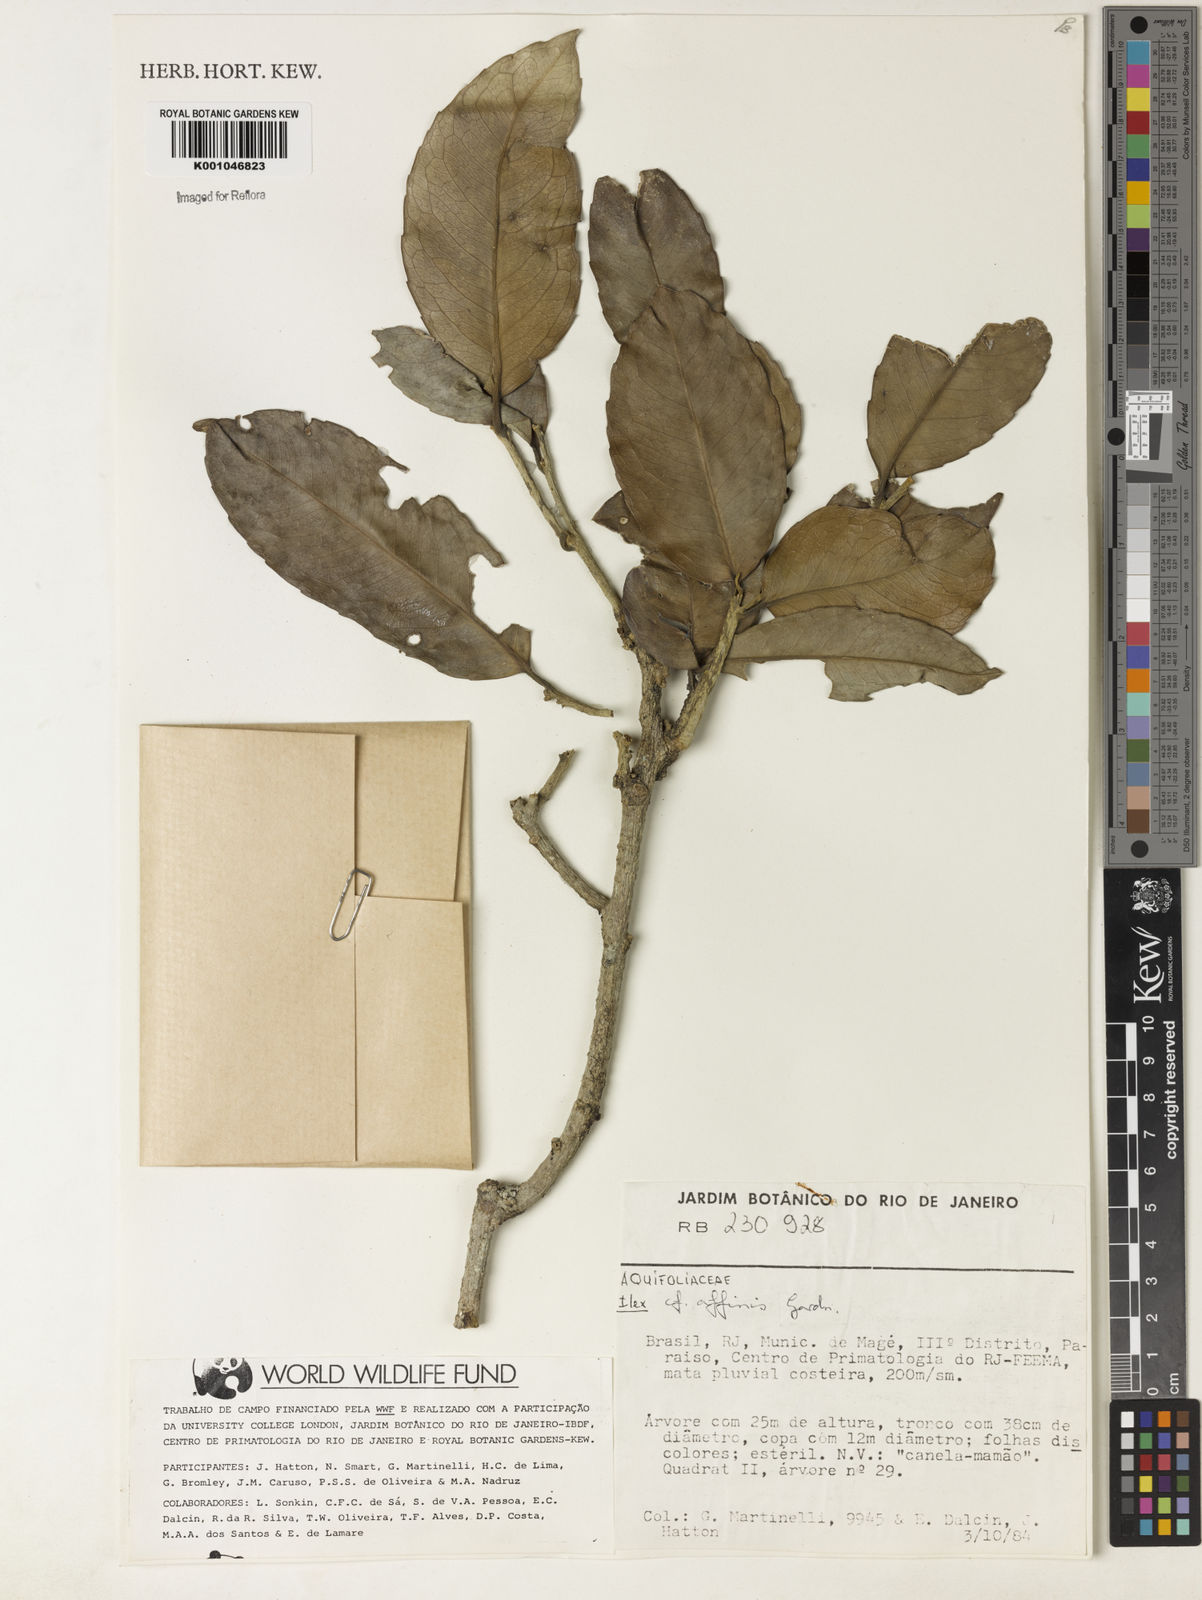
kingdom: Plantae
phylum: Tracheophyta
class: Magnoliopsida
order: Aquifoliales
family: Aquifoliaceae
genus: Ilex
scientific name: Ilex affinis
